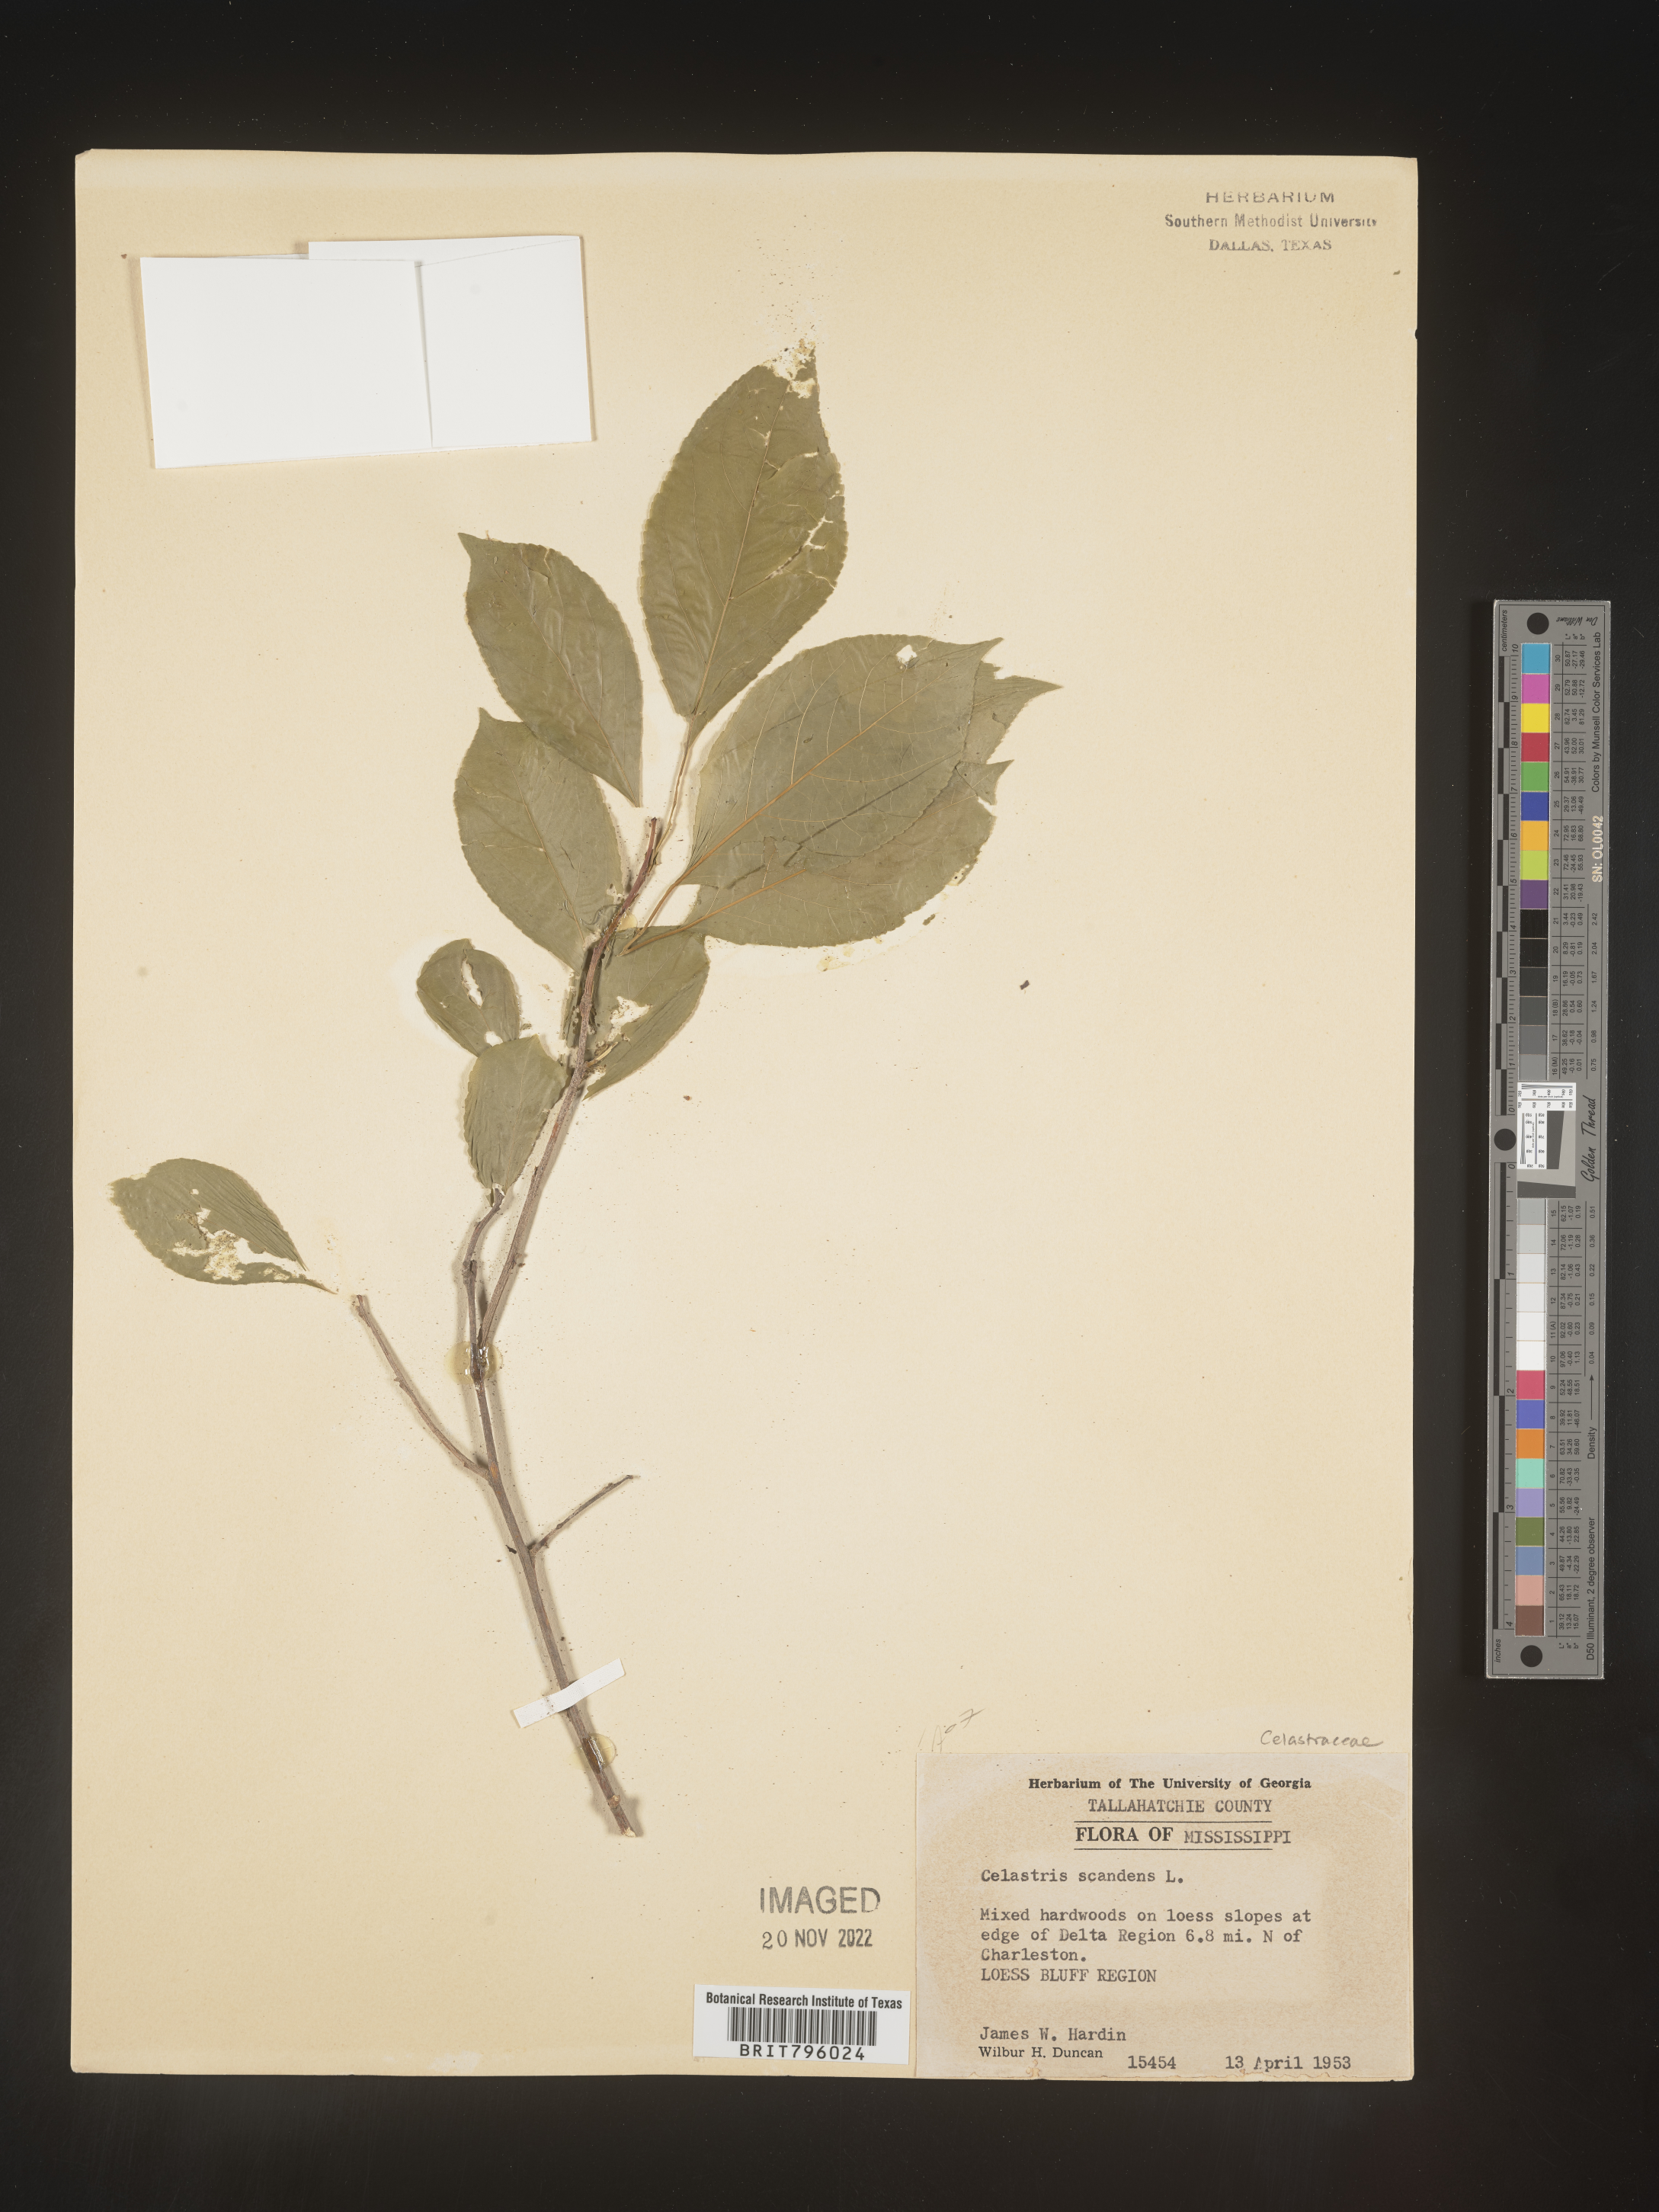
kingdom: Plantae
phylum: Tracheophyta
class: Magnoliopsida
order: Celastrales
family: Celastraceae
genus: Celastrus
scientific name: Celastrus scandens
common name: American bittersweet
